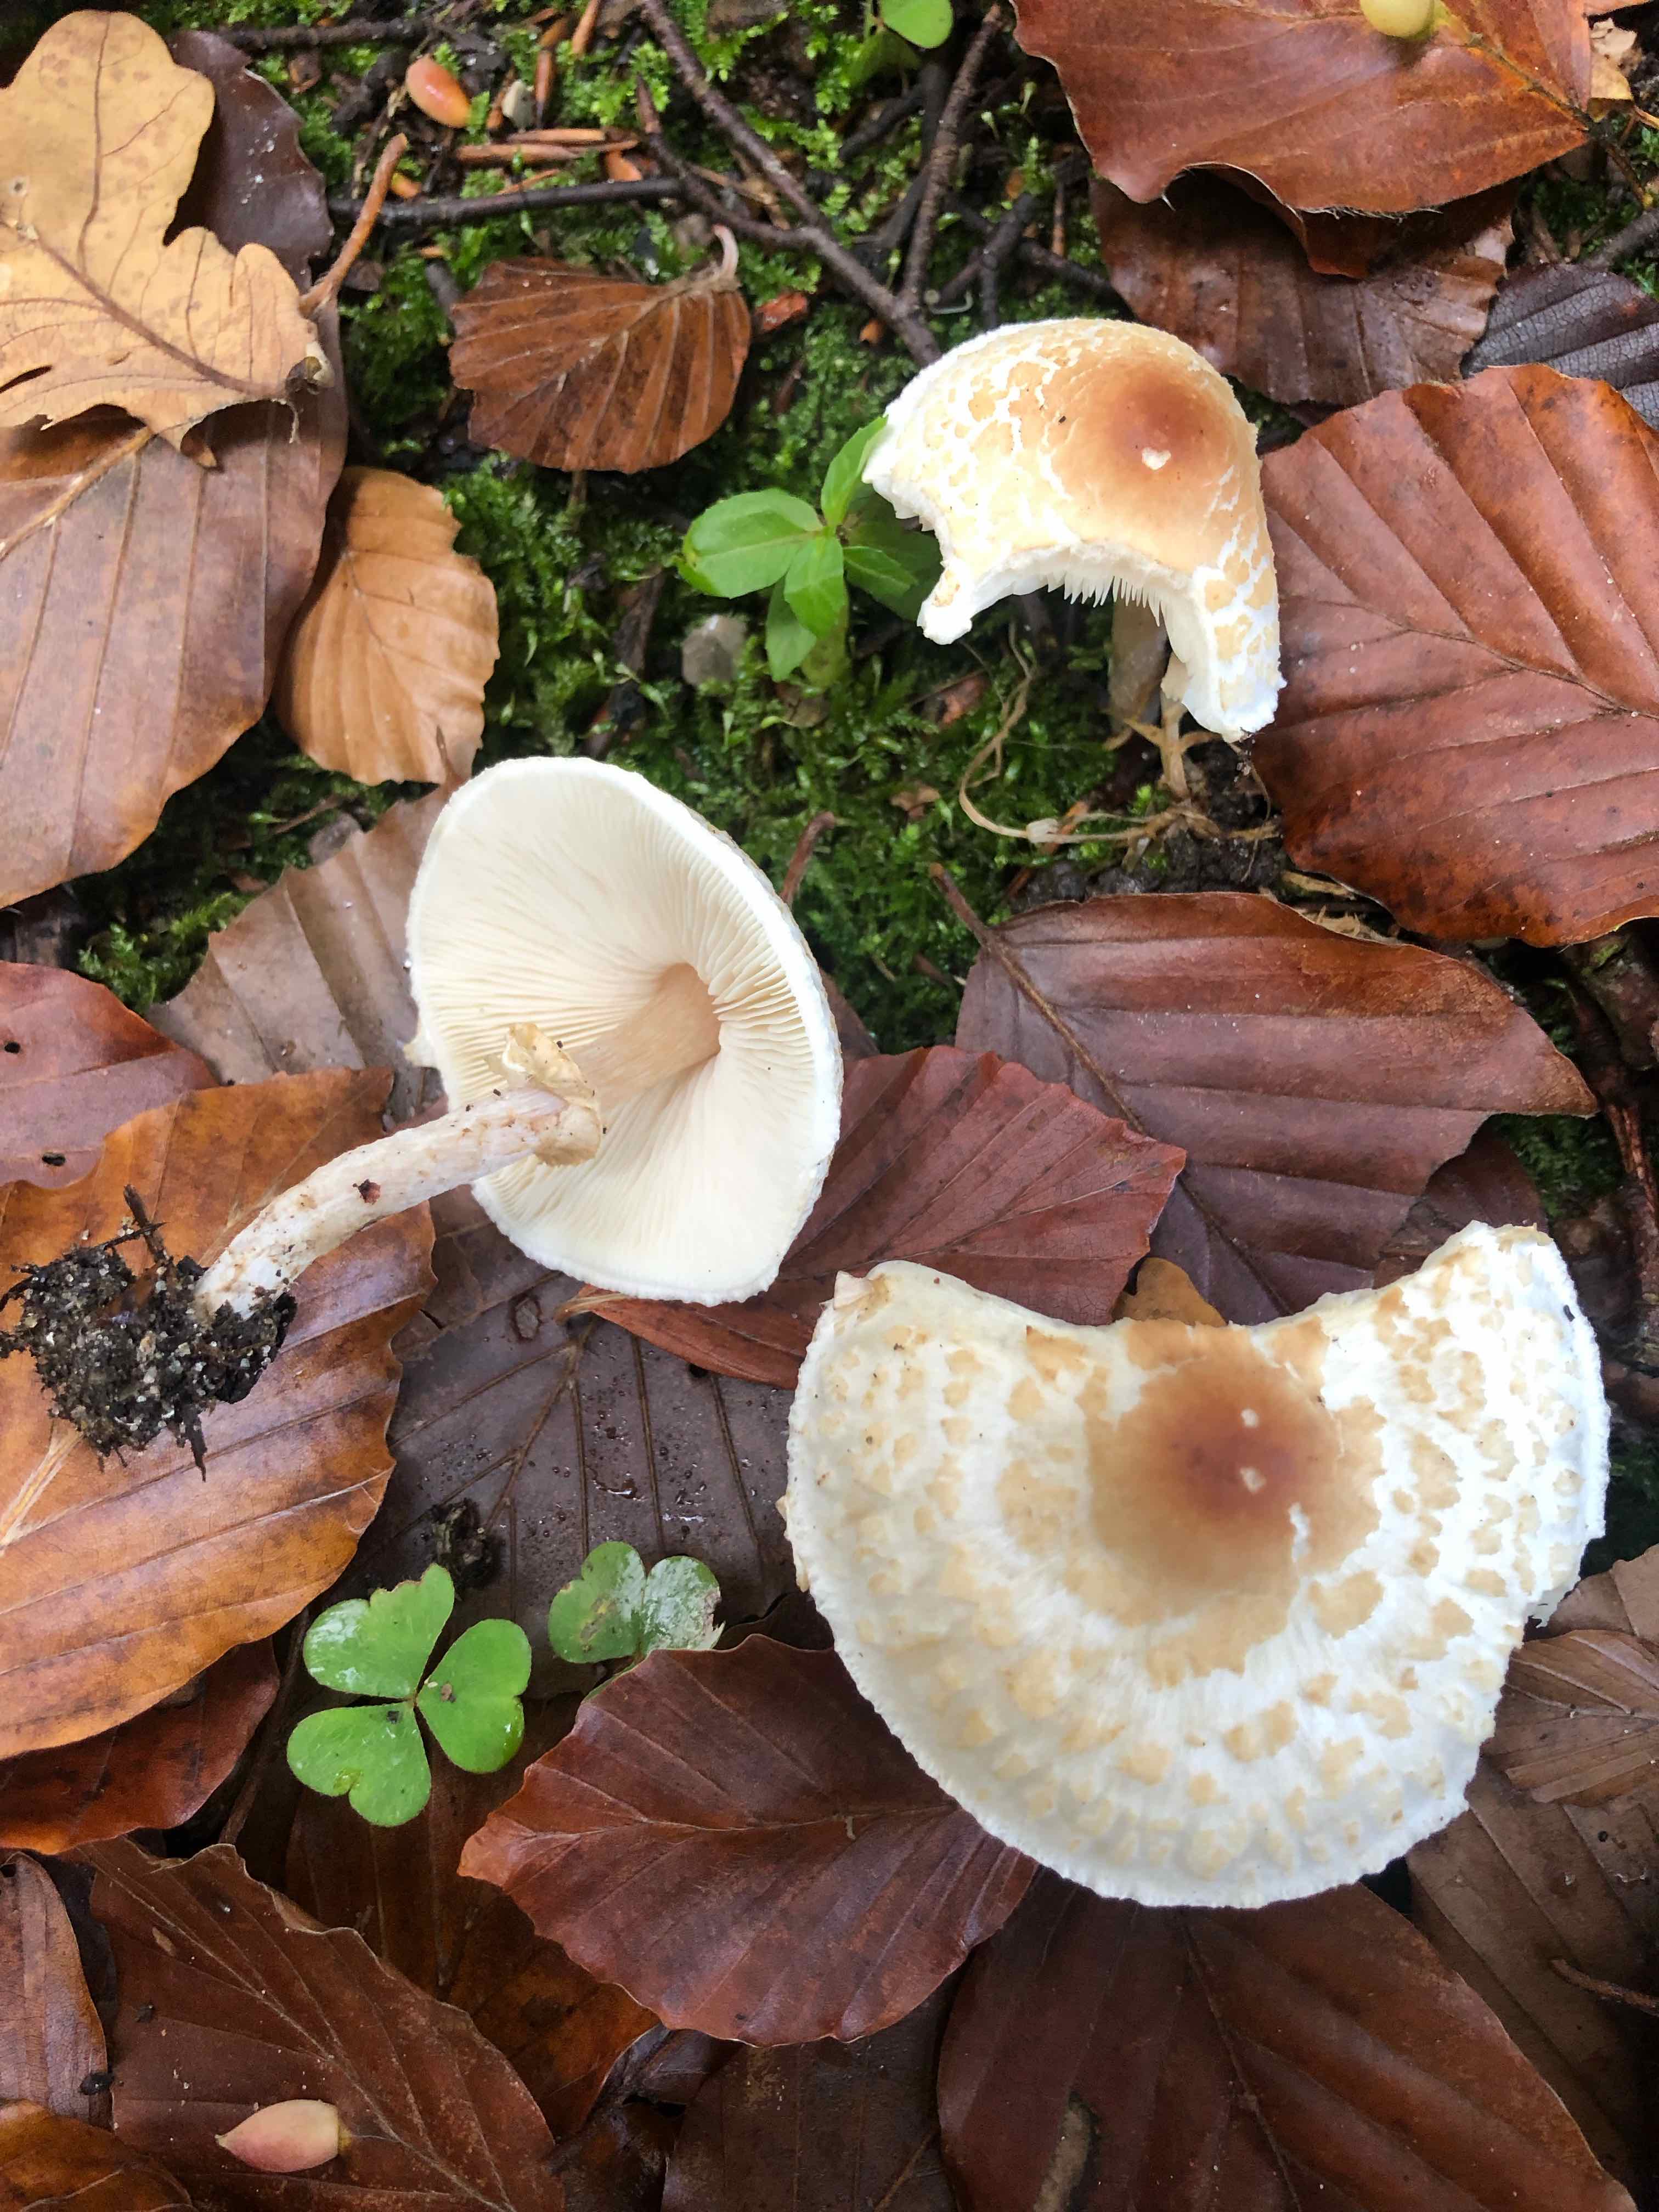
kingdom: Fungi
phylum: Basidiomycota
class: Agaricomycetes
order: Agaricales
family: Agaricaceae
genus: Lepiota
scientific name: Lepiota cristata
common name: stinkende parasolhat
